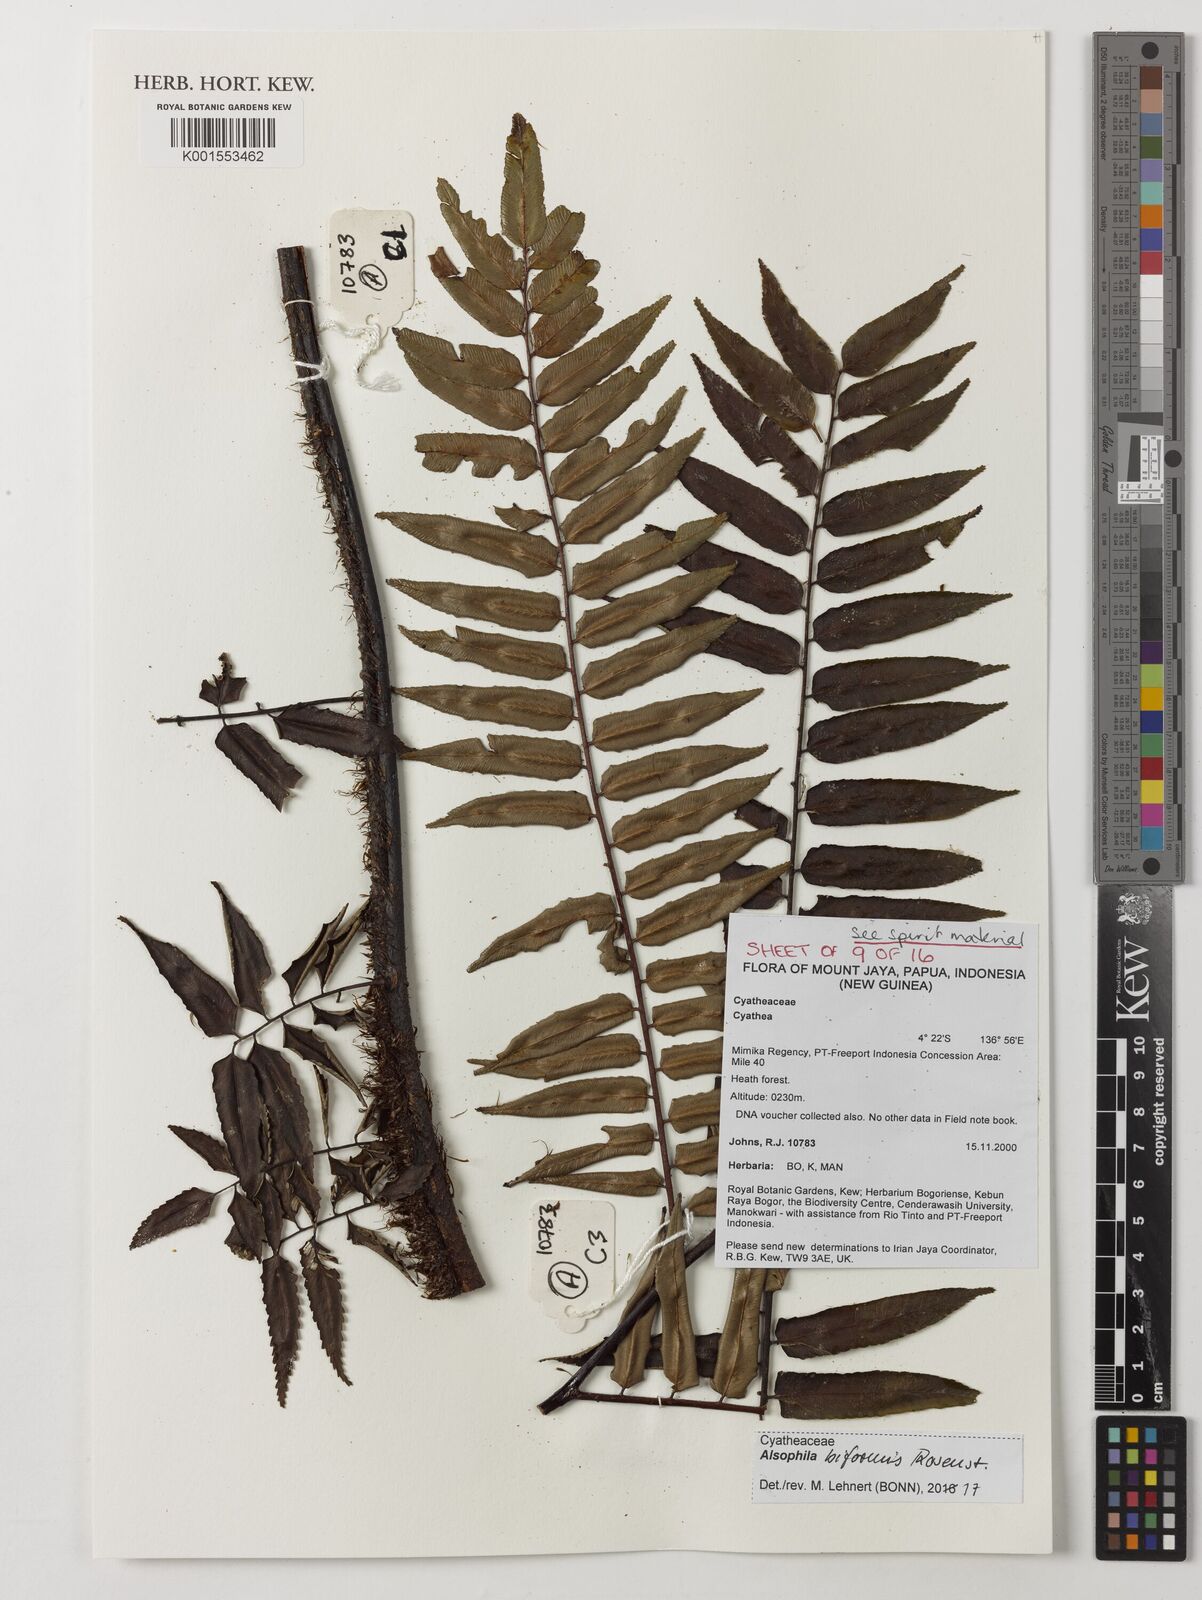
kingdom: Plantae
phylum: Tracheophyta
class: Polypodiopsida
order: Cyatheales
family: Cyatheaceae
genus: Gymnosphaera
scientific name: Gymnosphaera biformis
